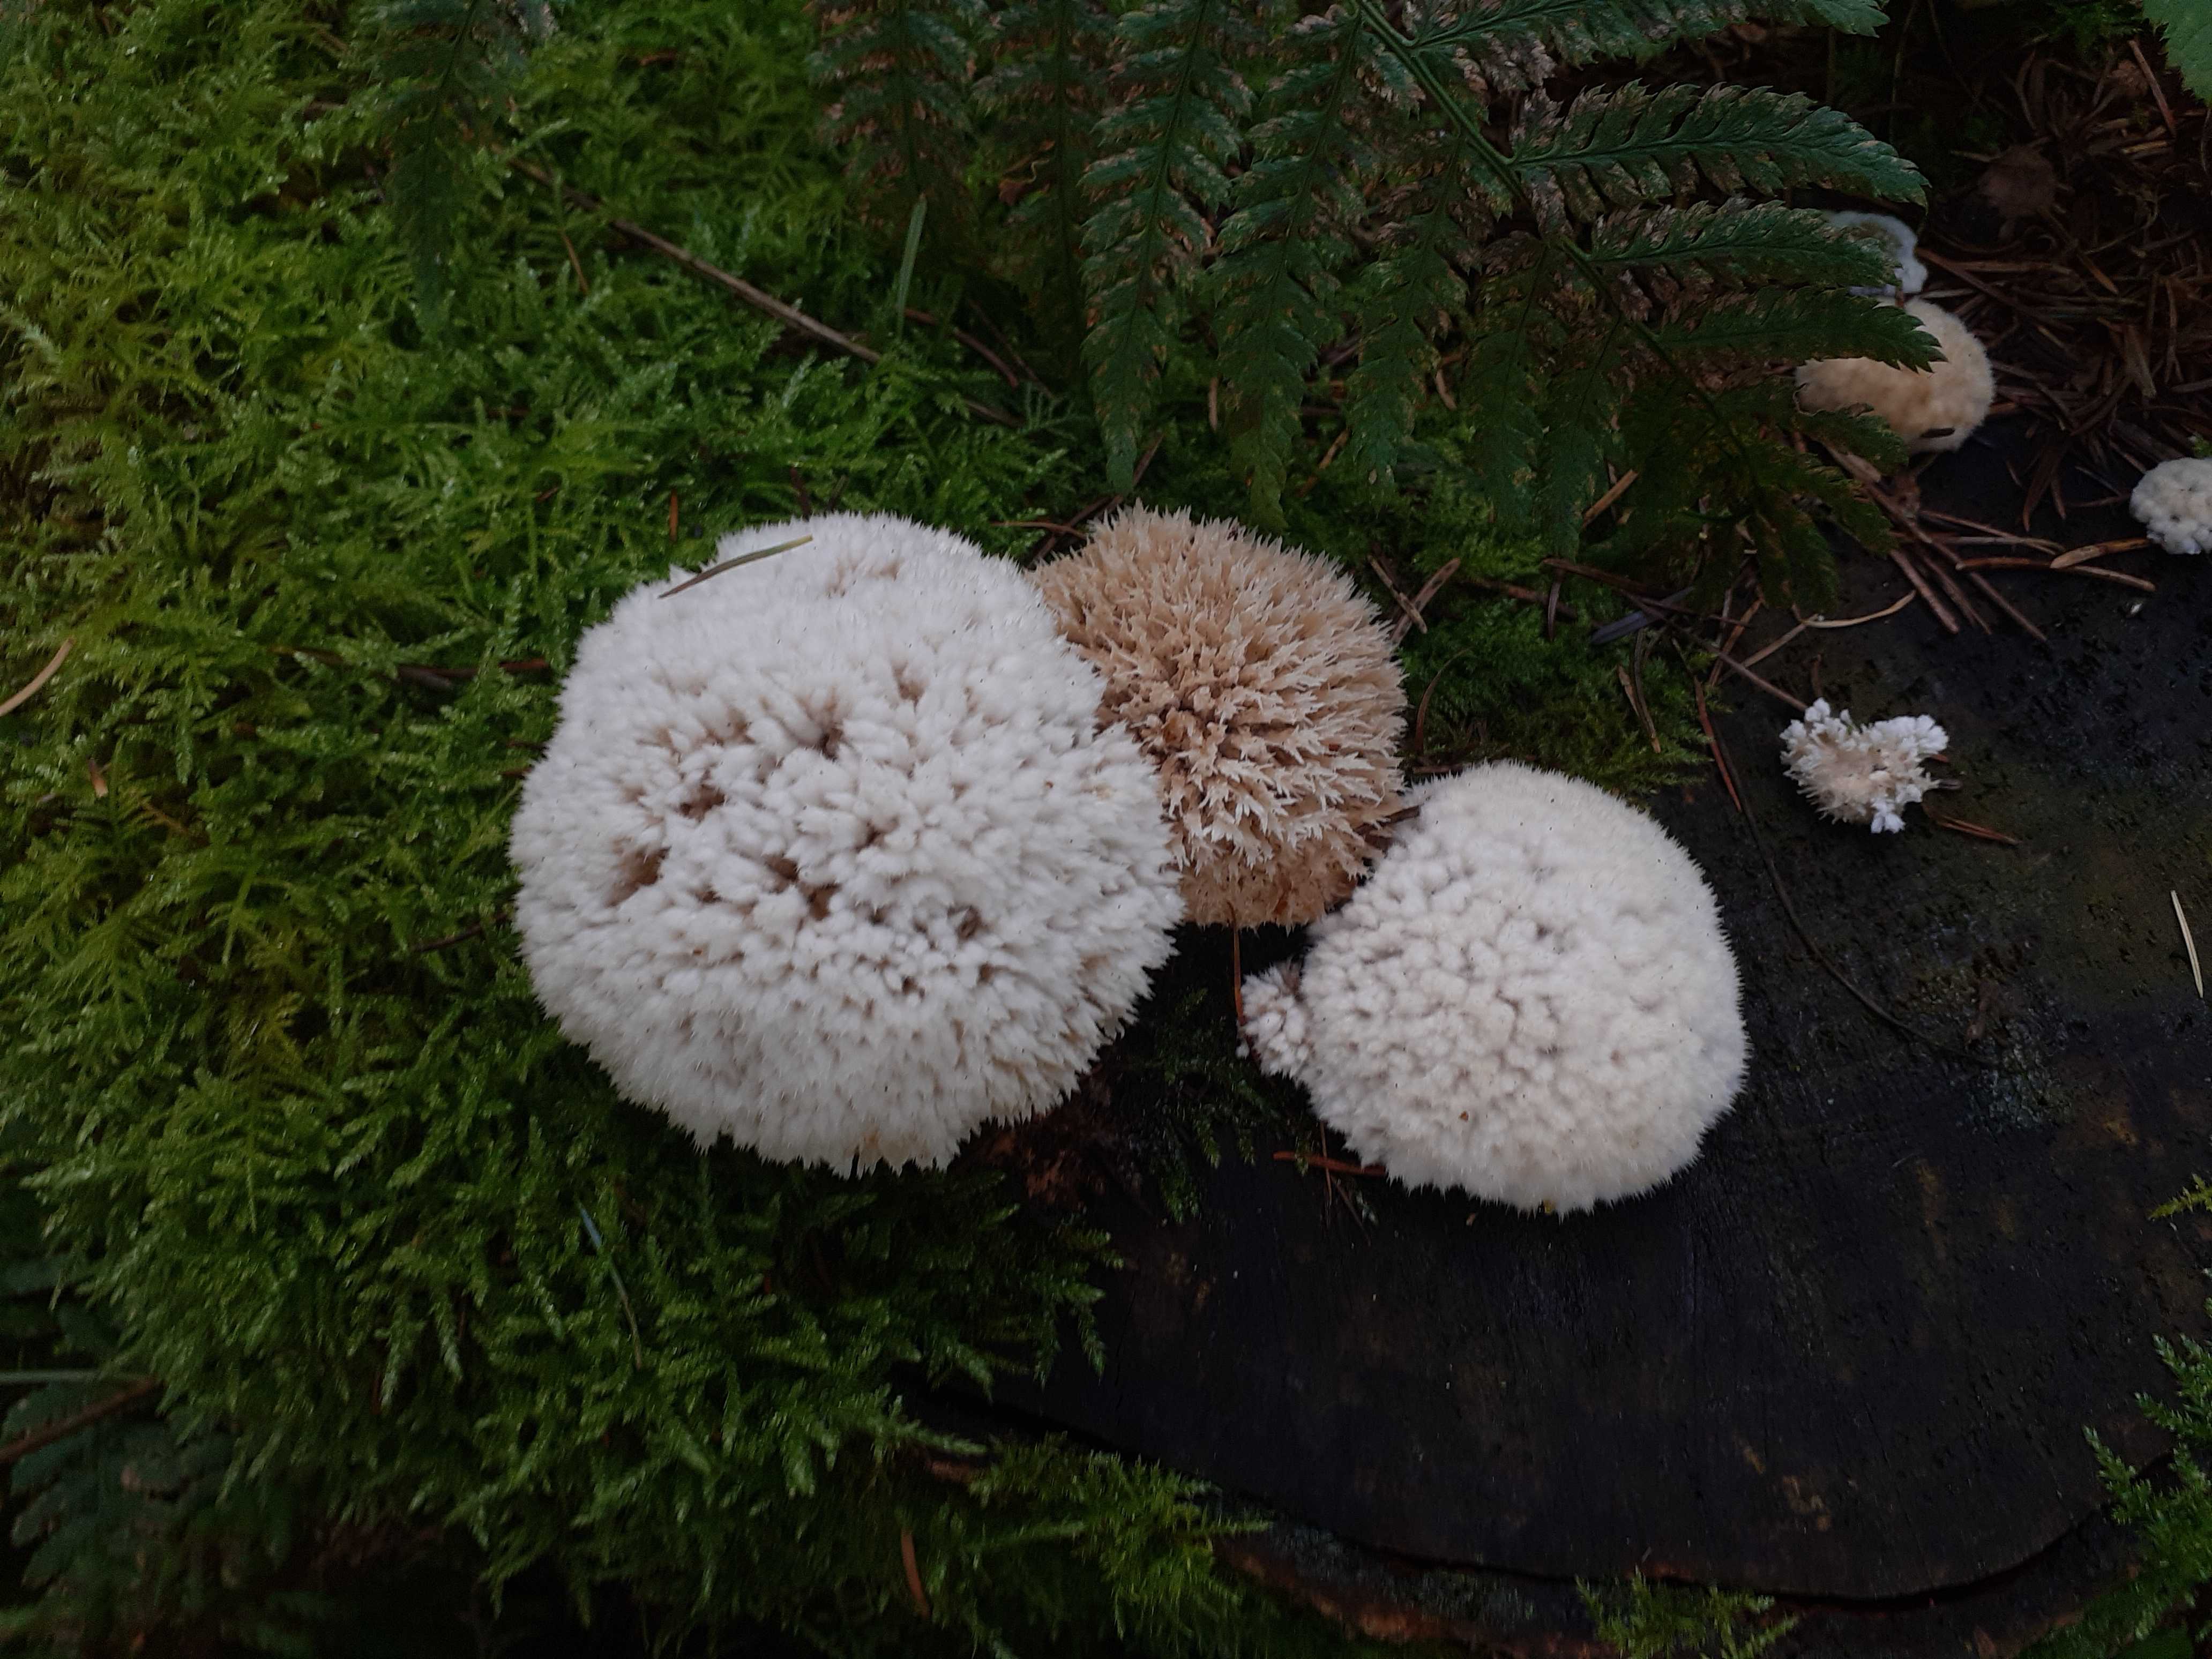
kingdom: Fungi
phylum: Basidiomycota
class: Agaricomycetes
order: Polyporales
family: Dacryobolaceae
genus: Postia
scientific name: Postia ptychogaster
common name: støvende kødporesvamp
